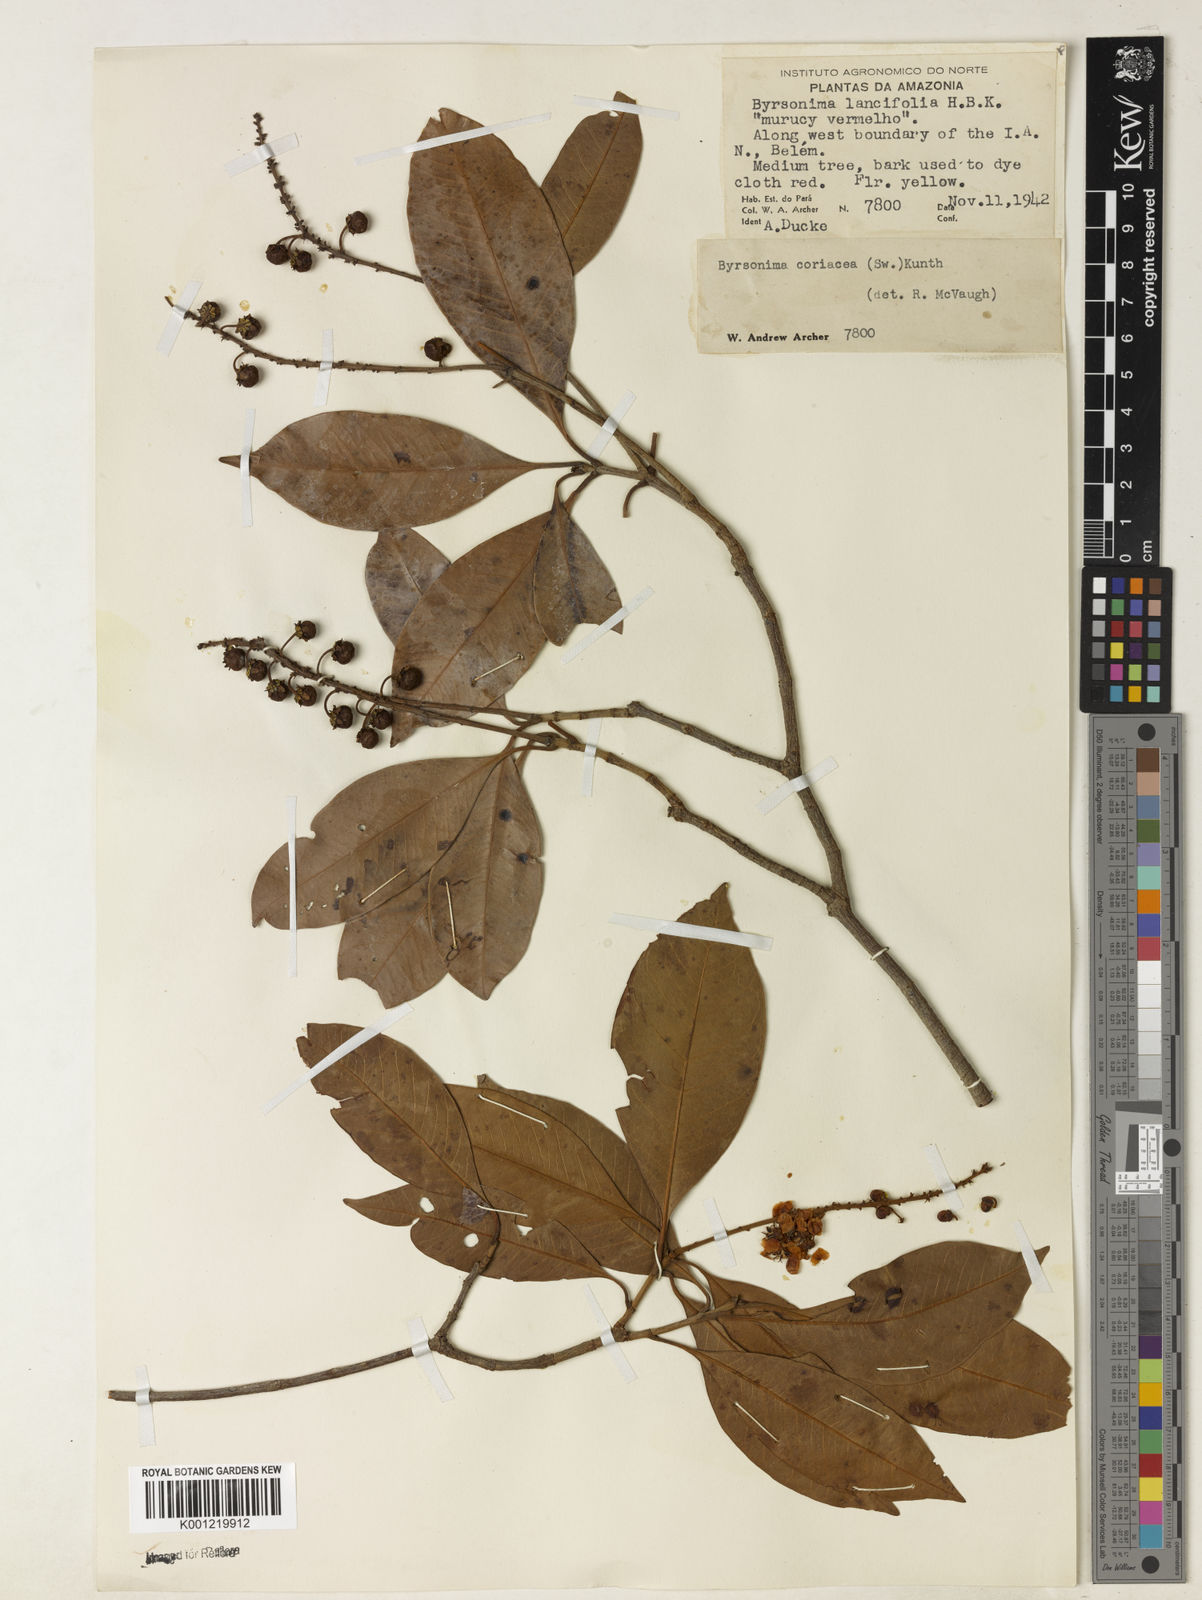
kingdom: Plantae
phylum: Tracheophyta
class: Magnoliopsida
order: Malpighiales
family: Malpighiaceae
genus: Byrsonima
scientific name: Byrsonima
